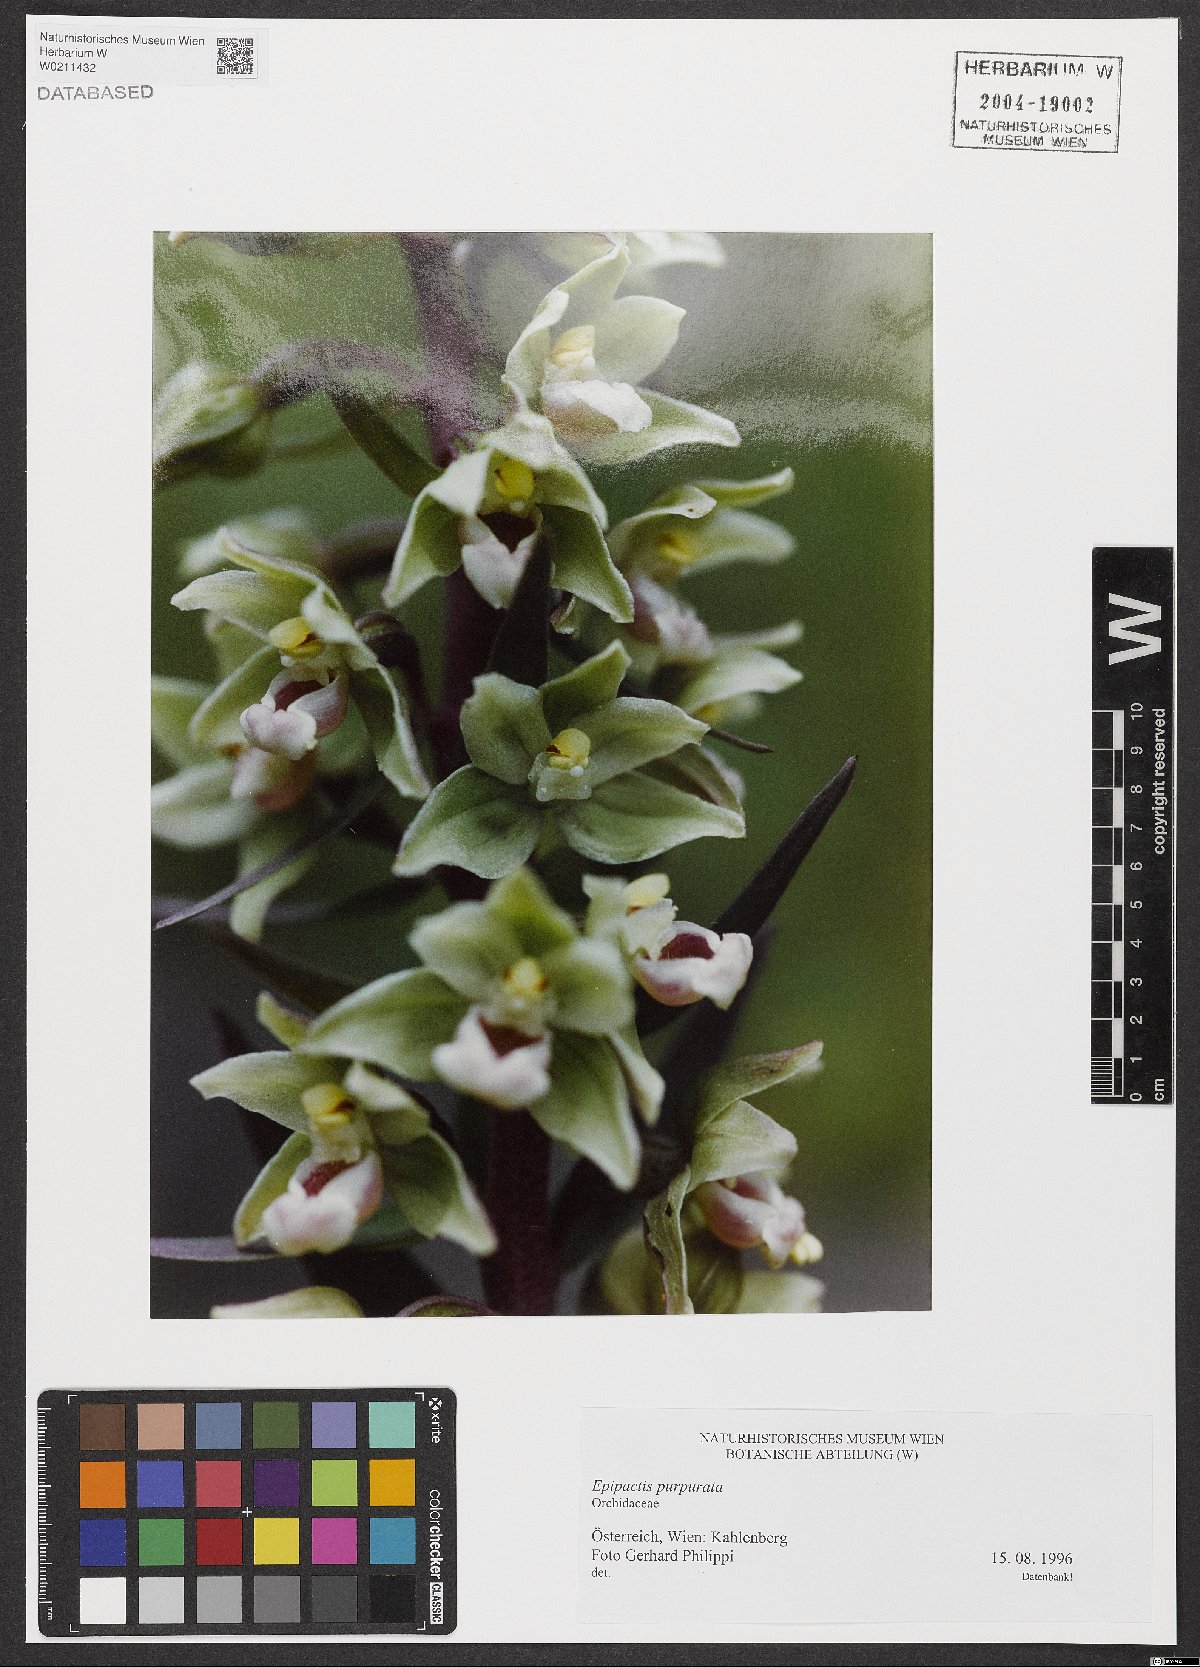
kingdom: Plantae
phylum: Tracheophyta
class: Liliopsida
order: Asparagales
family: Orchidaceae
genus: Epipactis
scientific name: Epipactis purpurata
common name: Violet helleborine
